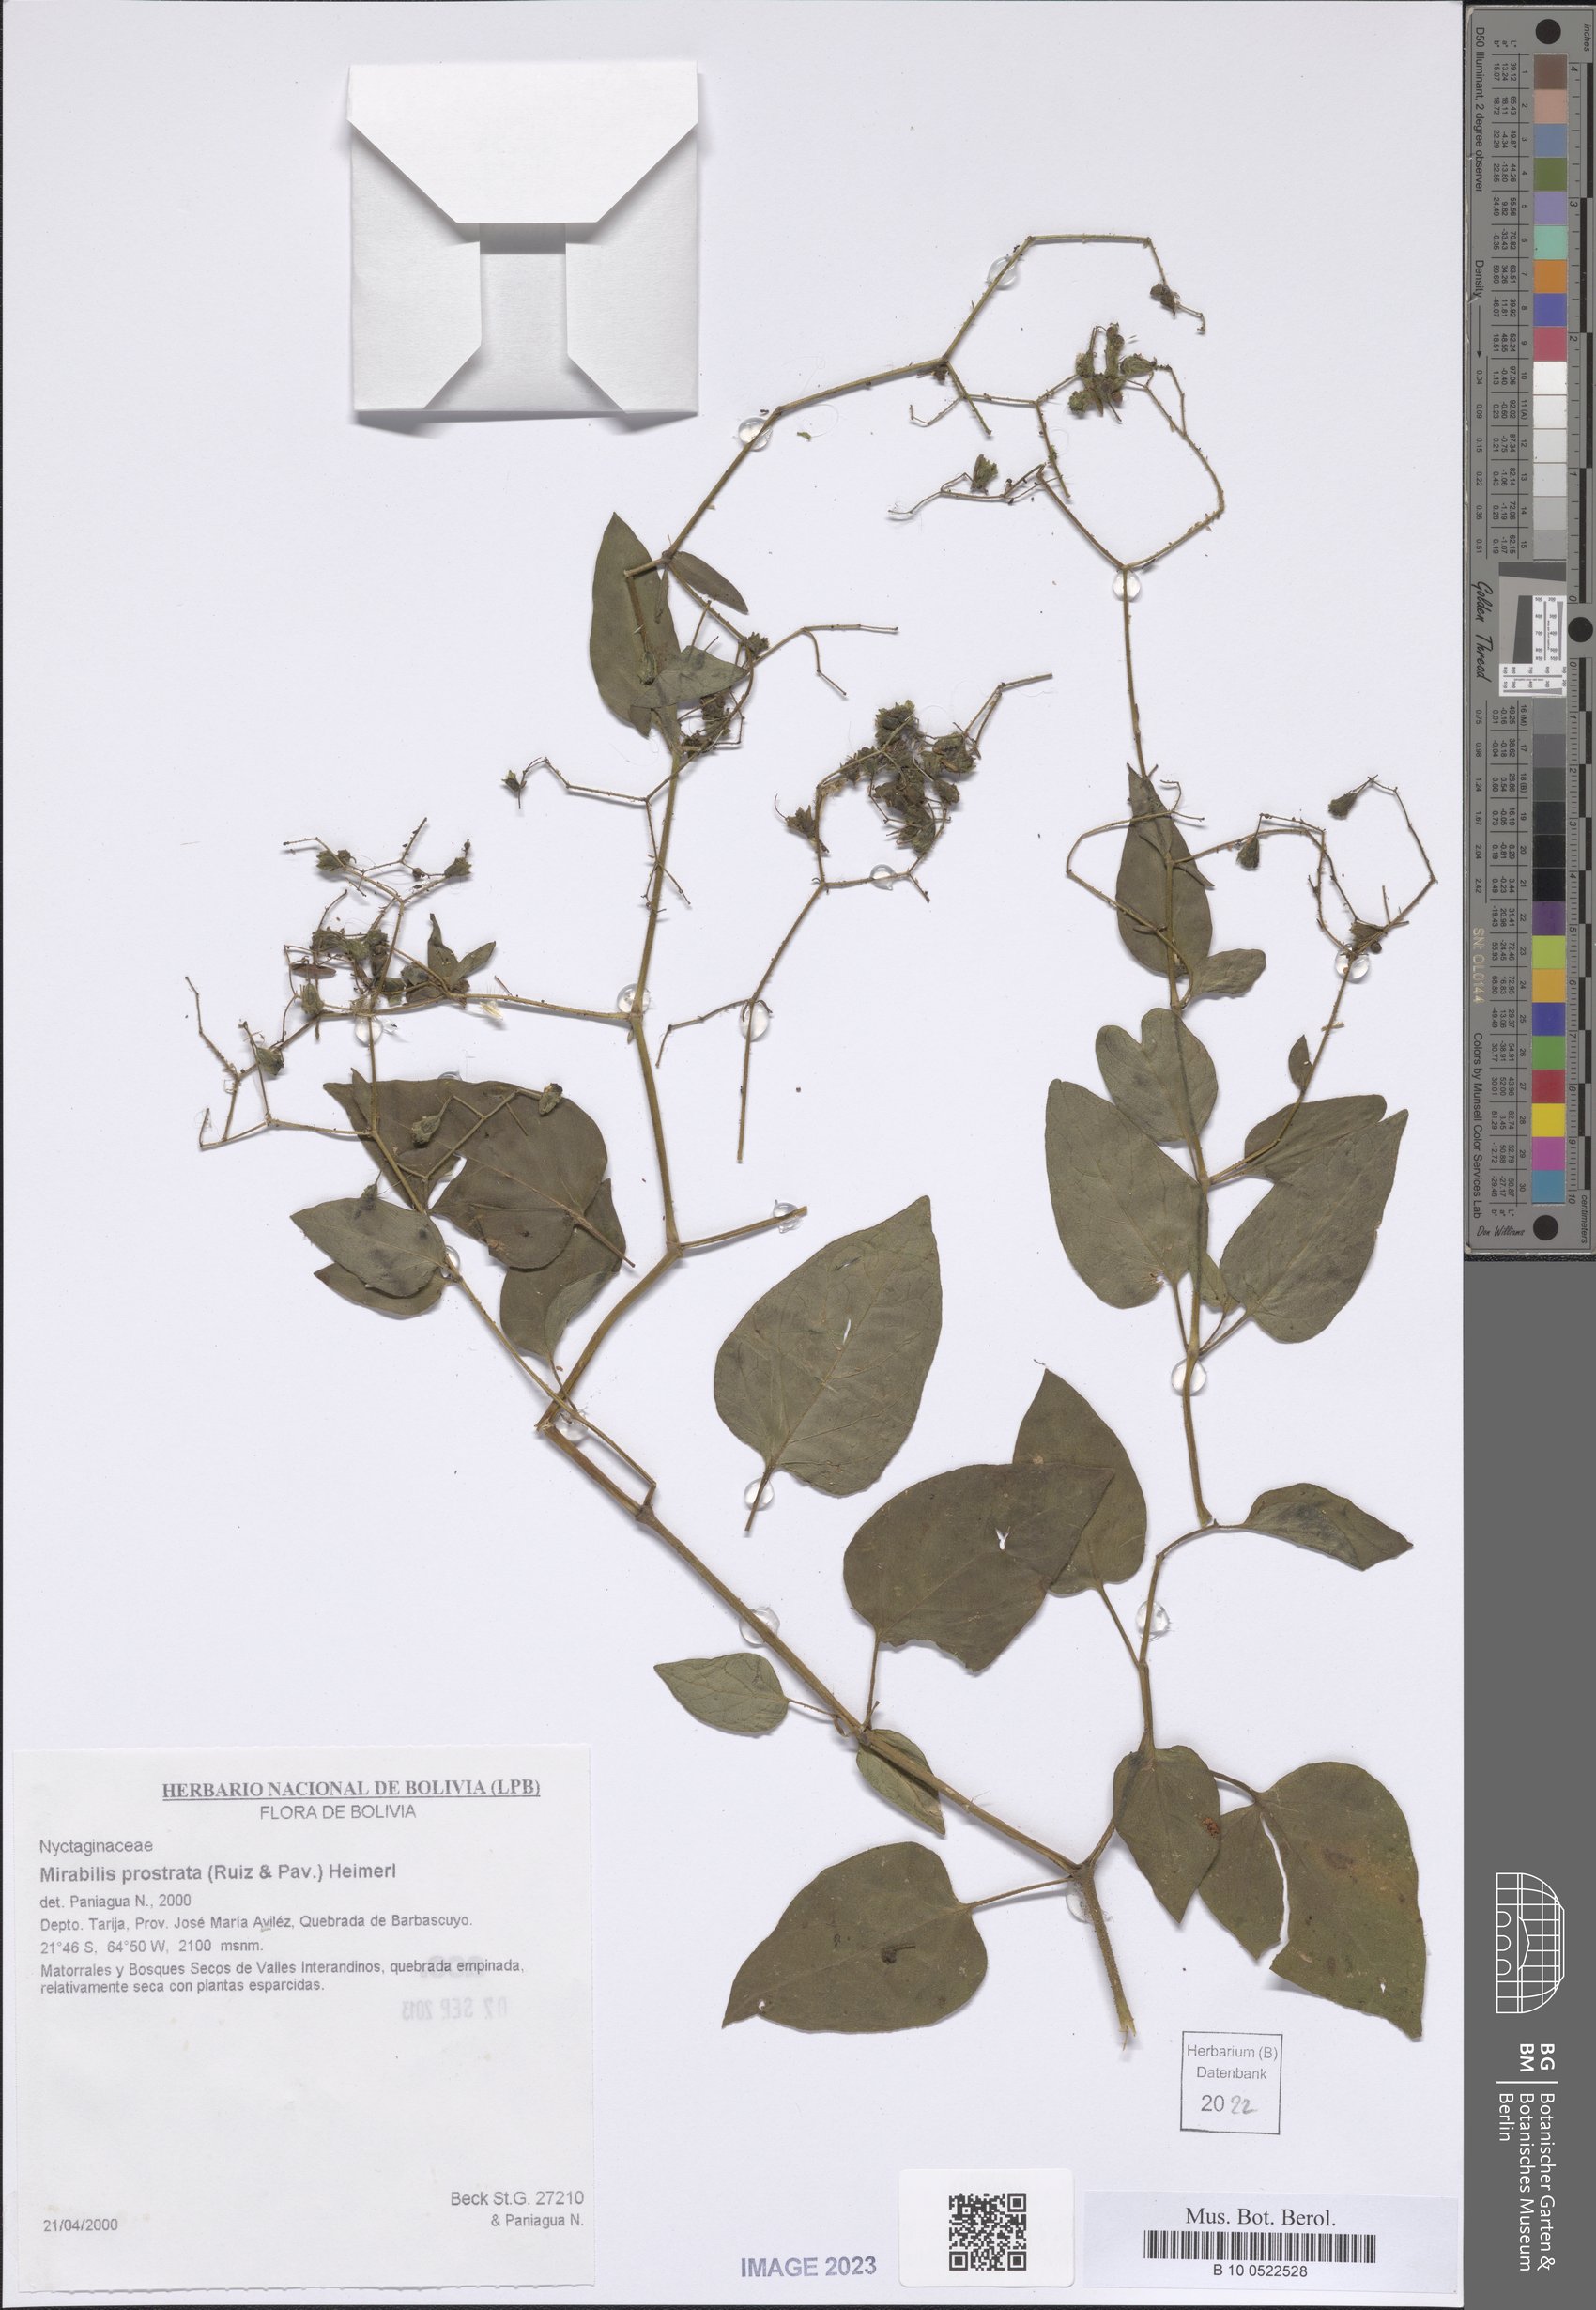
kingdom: Plantae
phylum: Tracheophyta
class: Magnoliopsida
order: Caryophyllales
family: Nyctaginaceae
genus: Mirabilis
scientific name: Mirabilis prostrata
